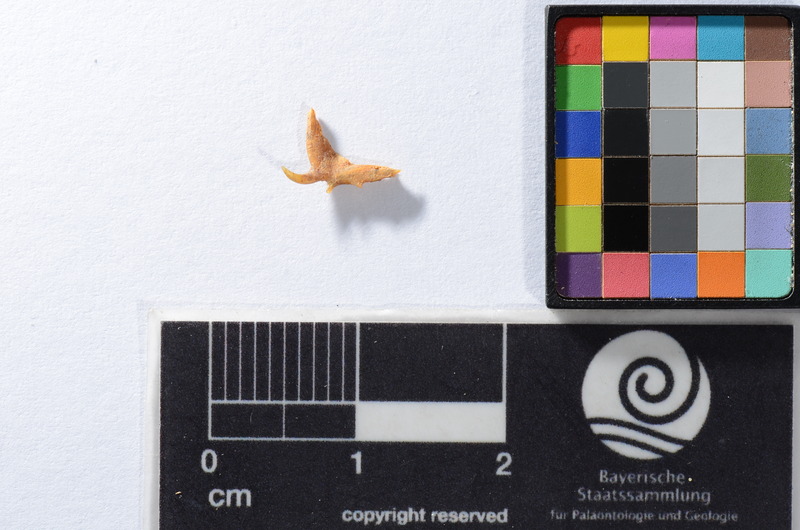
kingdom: Animalia
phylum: Chordata
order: Scorpaeniformes
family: Cottidae
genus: Cottus
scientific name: Cottus gobio
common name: Bullhead
